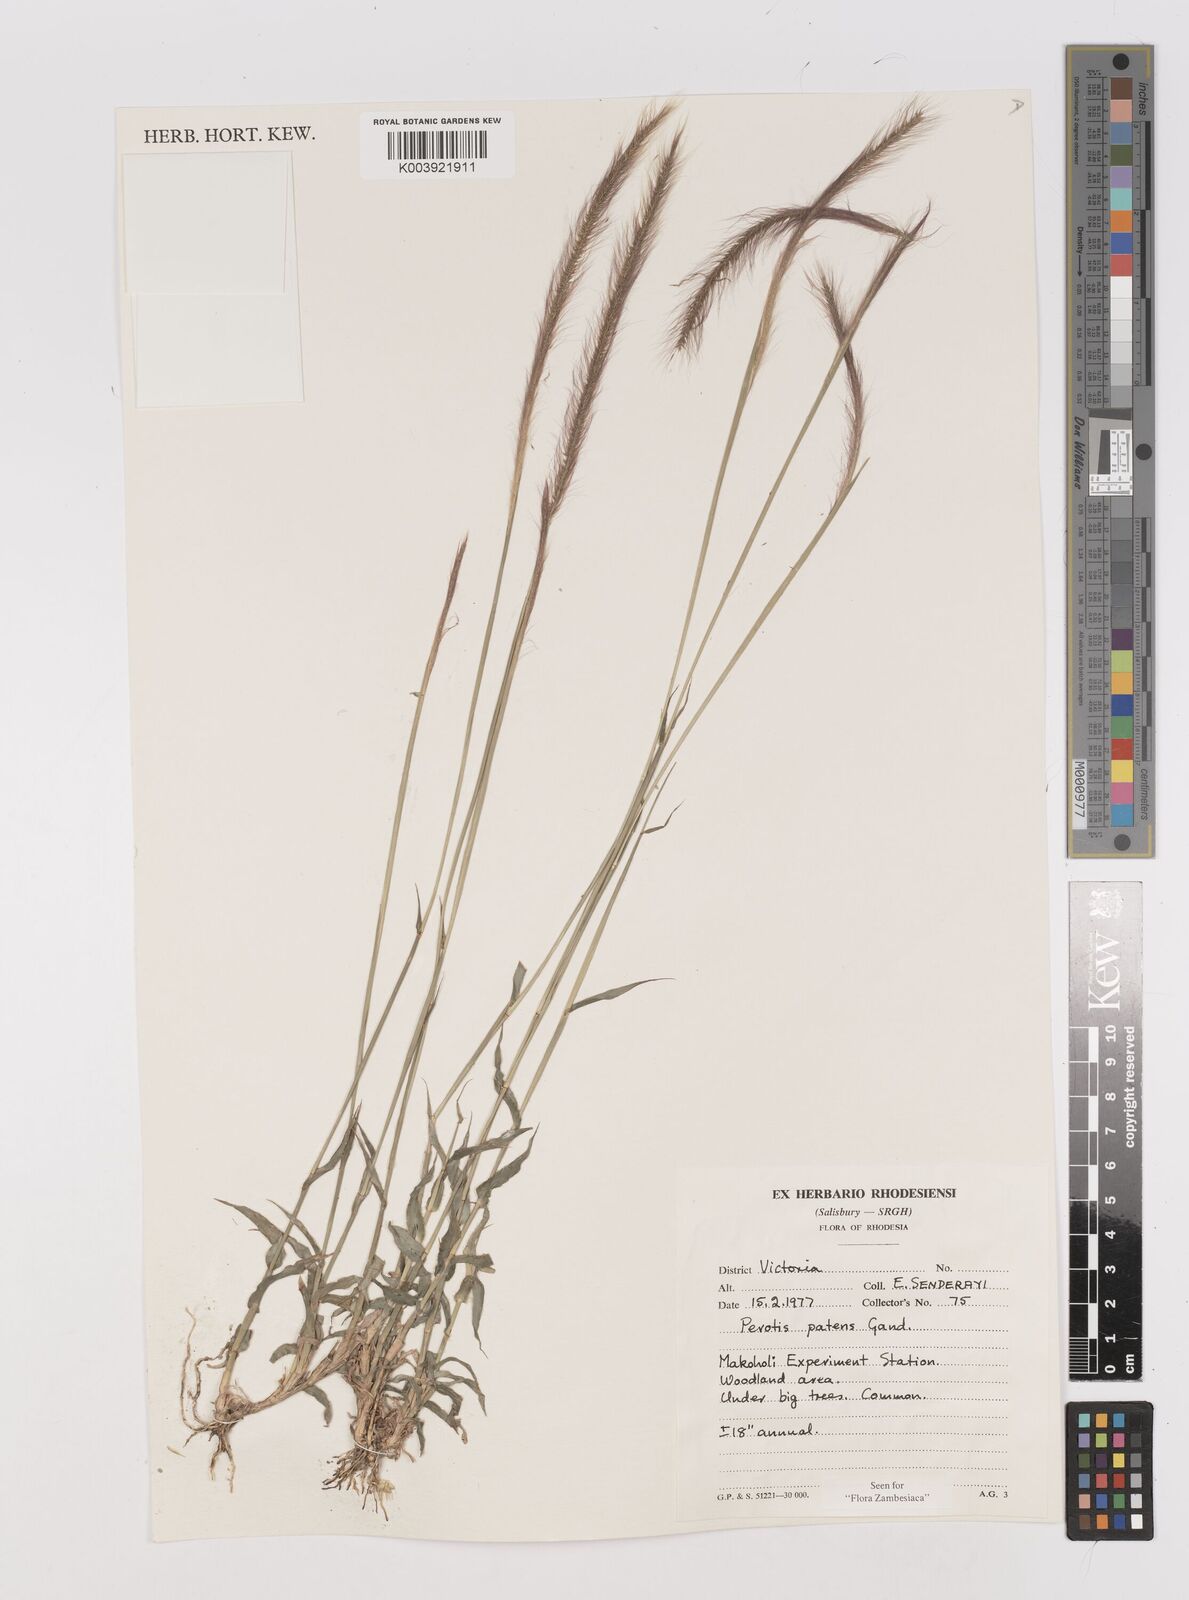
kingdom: Plantae
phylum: Tracheophyta
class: Liliopsida
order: Poales
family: Poaceae
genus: Perotis
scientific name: Perotis patens
